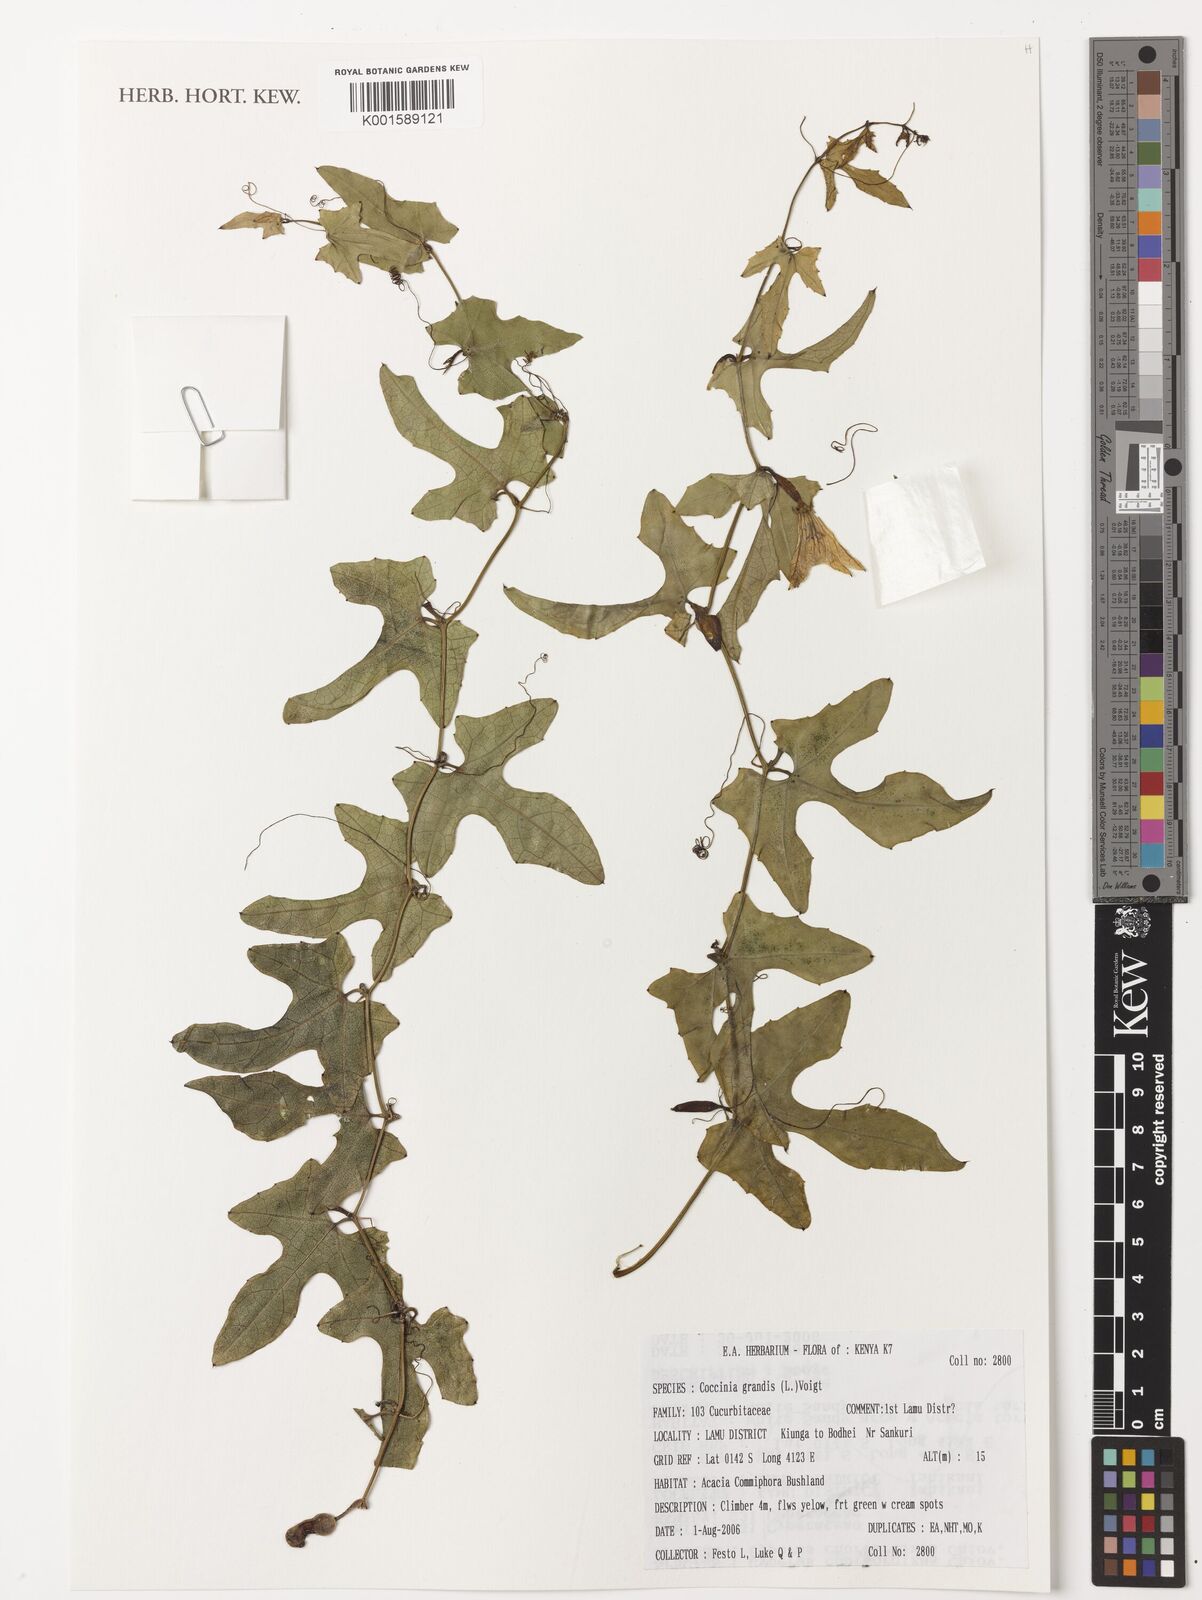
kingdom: Plantae
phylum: Tracheophyta
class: Magnoliopsida
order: Cucurbitales
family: Cucurbitaceae
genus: Coccinia
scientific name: Coccinia grandis
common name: Ivy gourd
